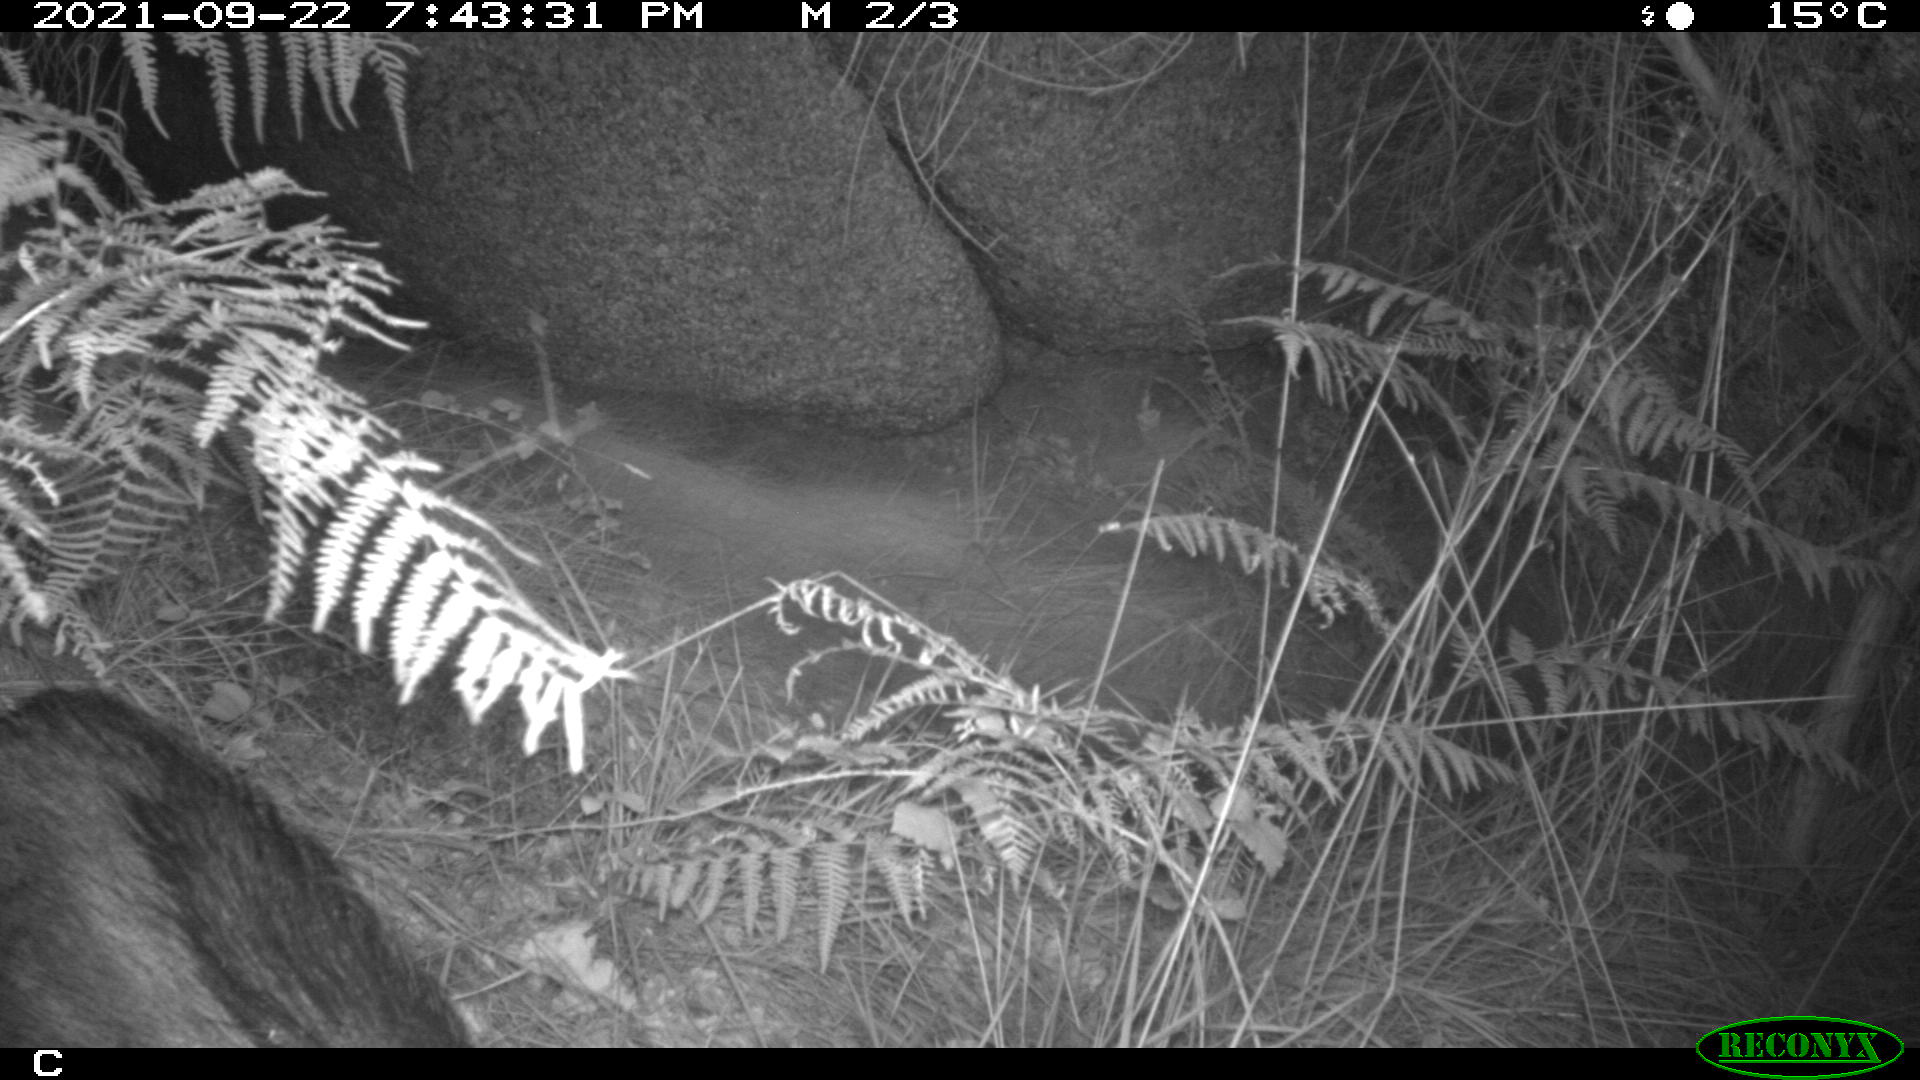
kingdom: Animalia
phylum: Chordata
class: Mammalia
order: Artiodactyla
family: Suidae
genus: Sus
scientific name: Sus scrofa
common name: Wild boar
